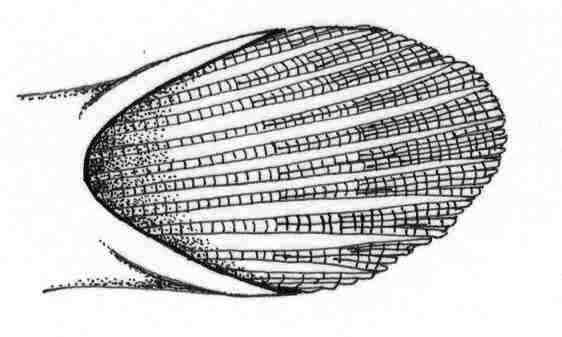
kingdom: Animalia
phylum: Chordata
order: Perciformes
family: Gobiidae
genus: Trypauchen
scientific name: Trypauchen vagina
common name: Burrowing goby
